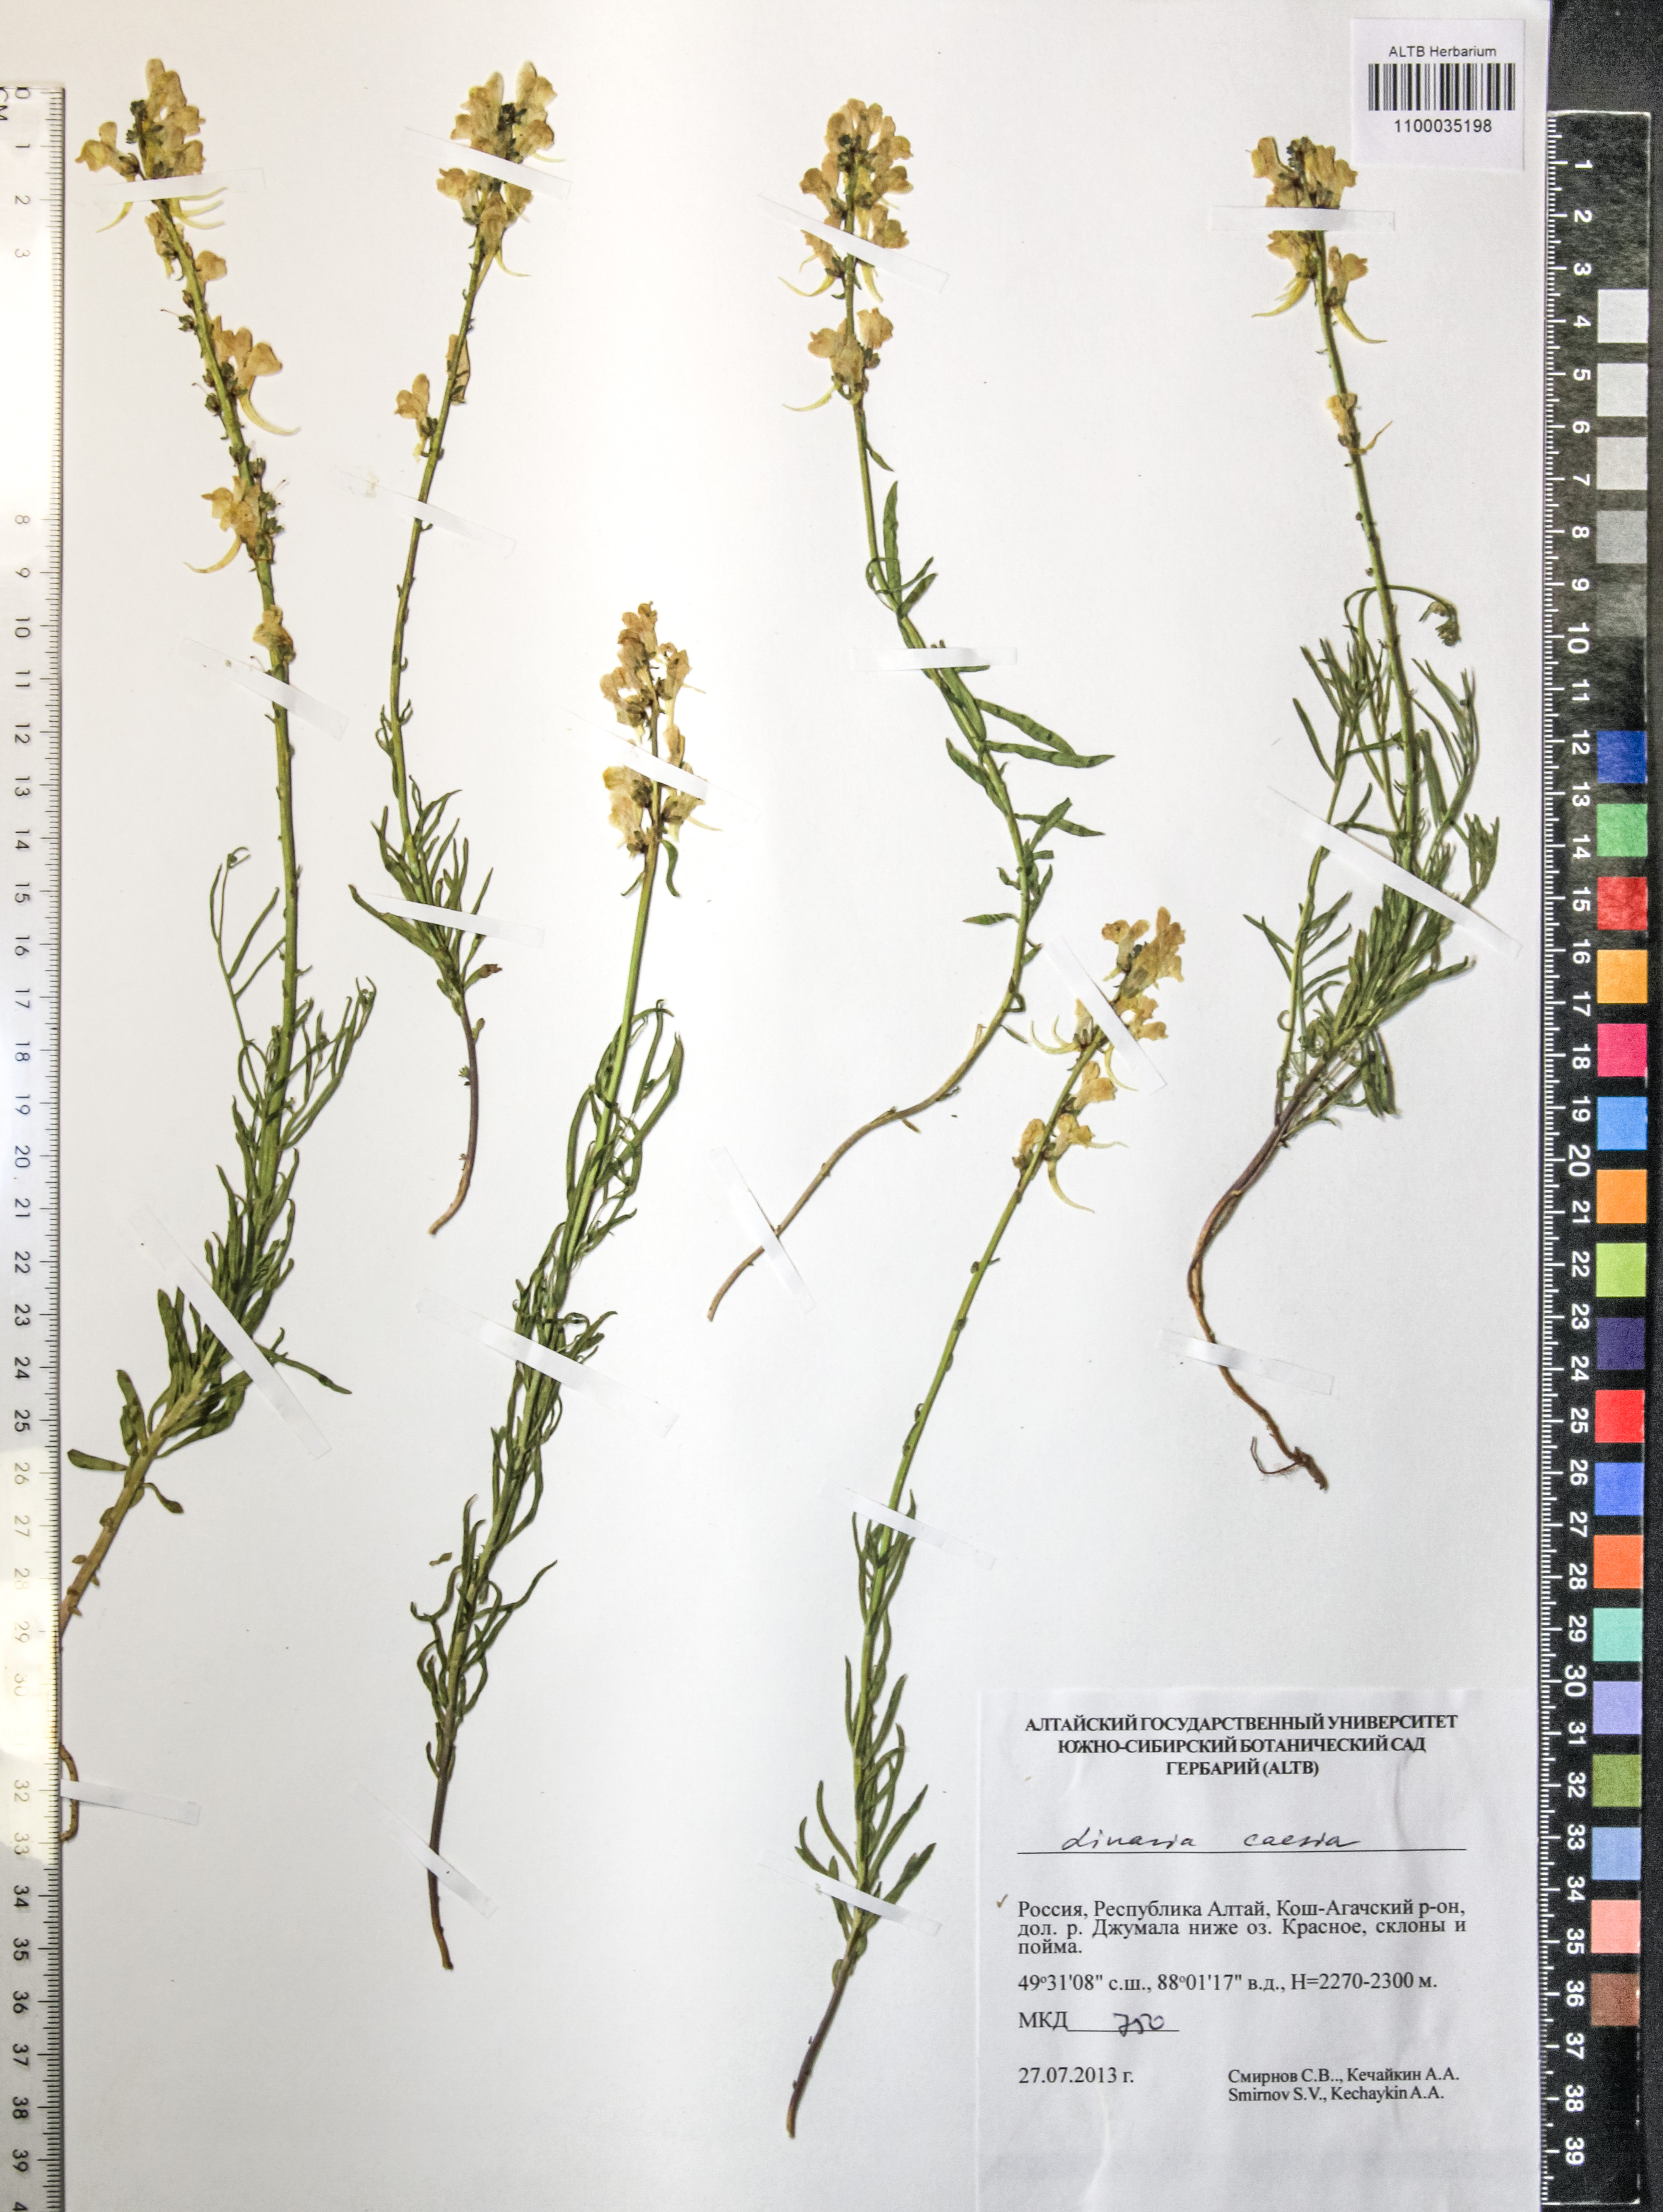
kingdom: Plantae
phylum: Tracheophyta
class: Magnoliopsida
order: Lamiales
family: Plantaginaceae
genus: Linaria
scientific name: Linaria caesia
